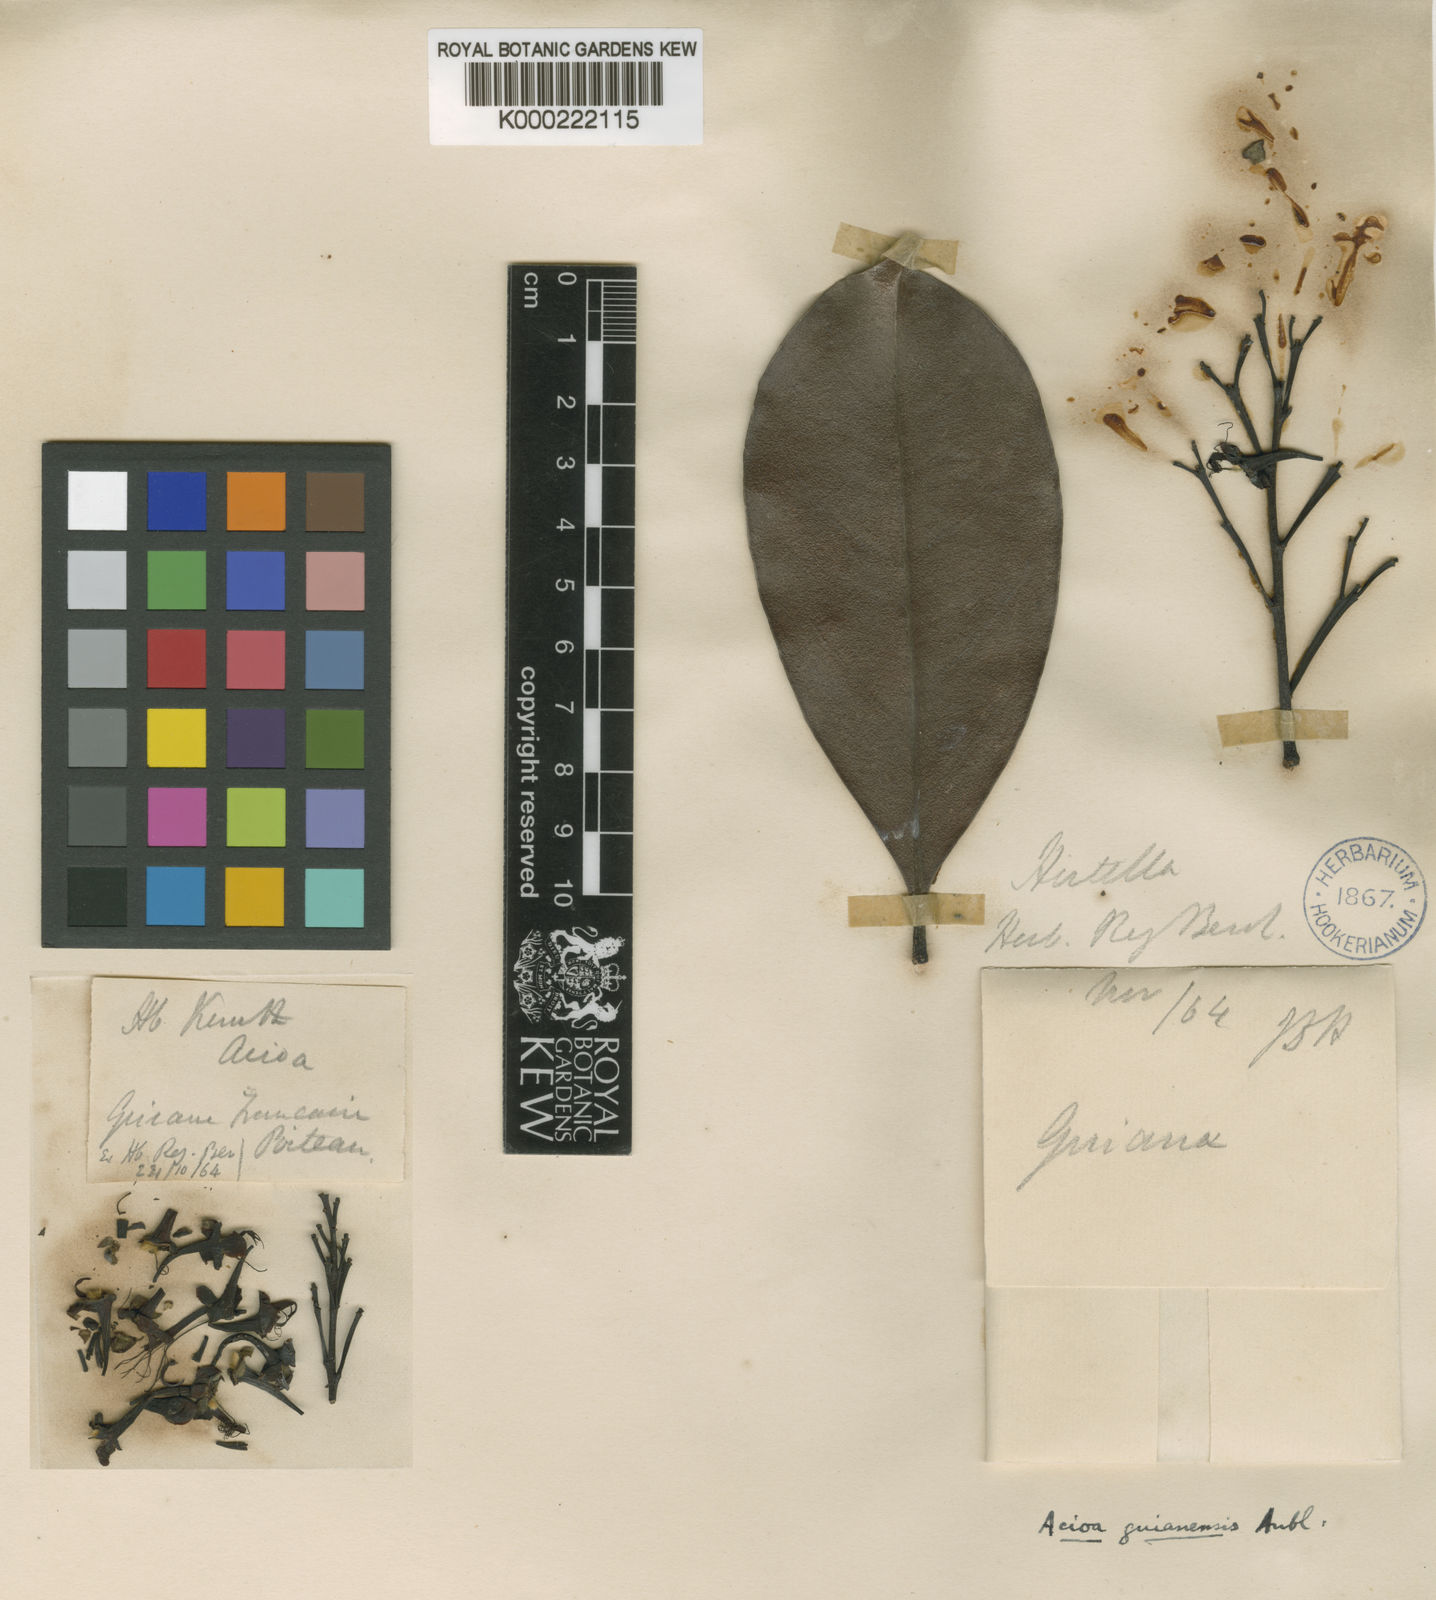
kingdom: Plantae
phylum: Tracheophyta
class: Magnoliopsida
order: Malpighiales
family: Chrysobalanaceae
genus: Acioa
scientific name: Acioa guianensis
